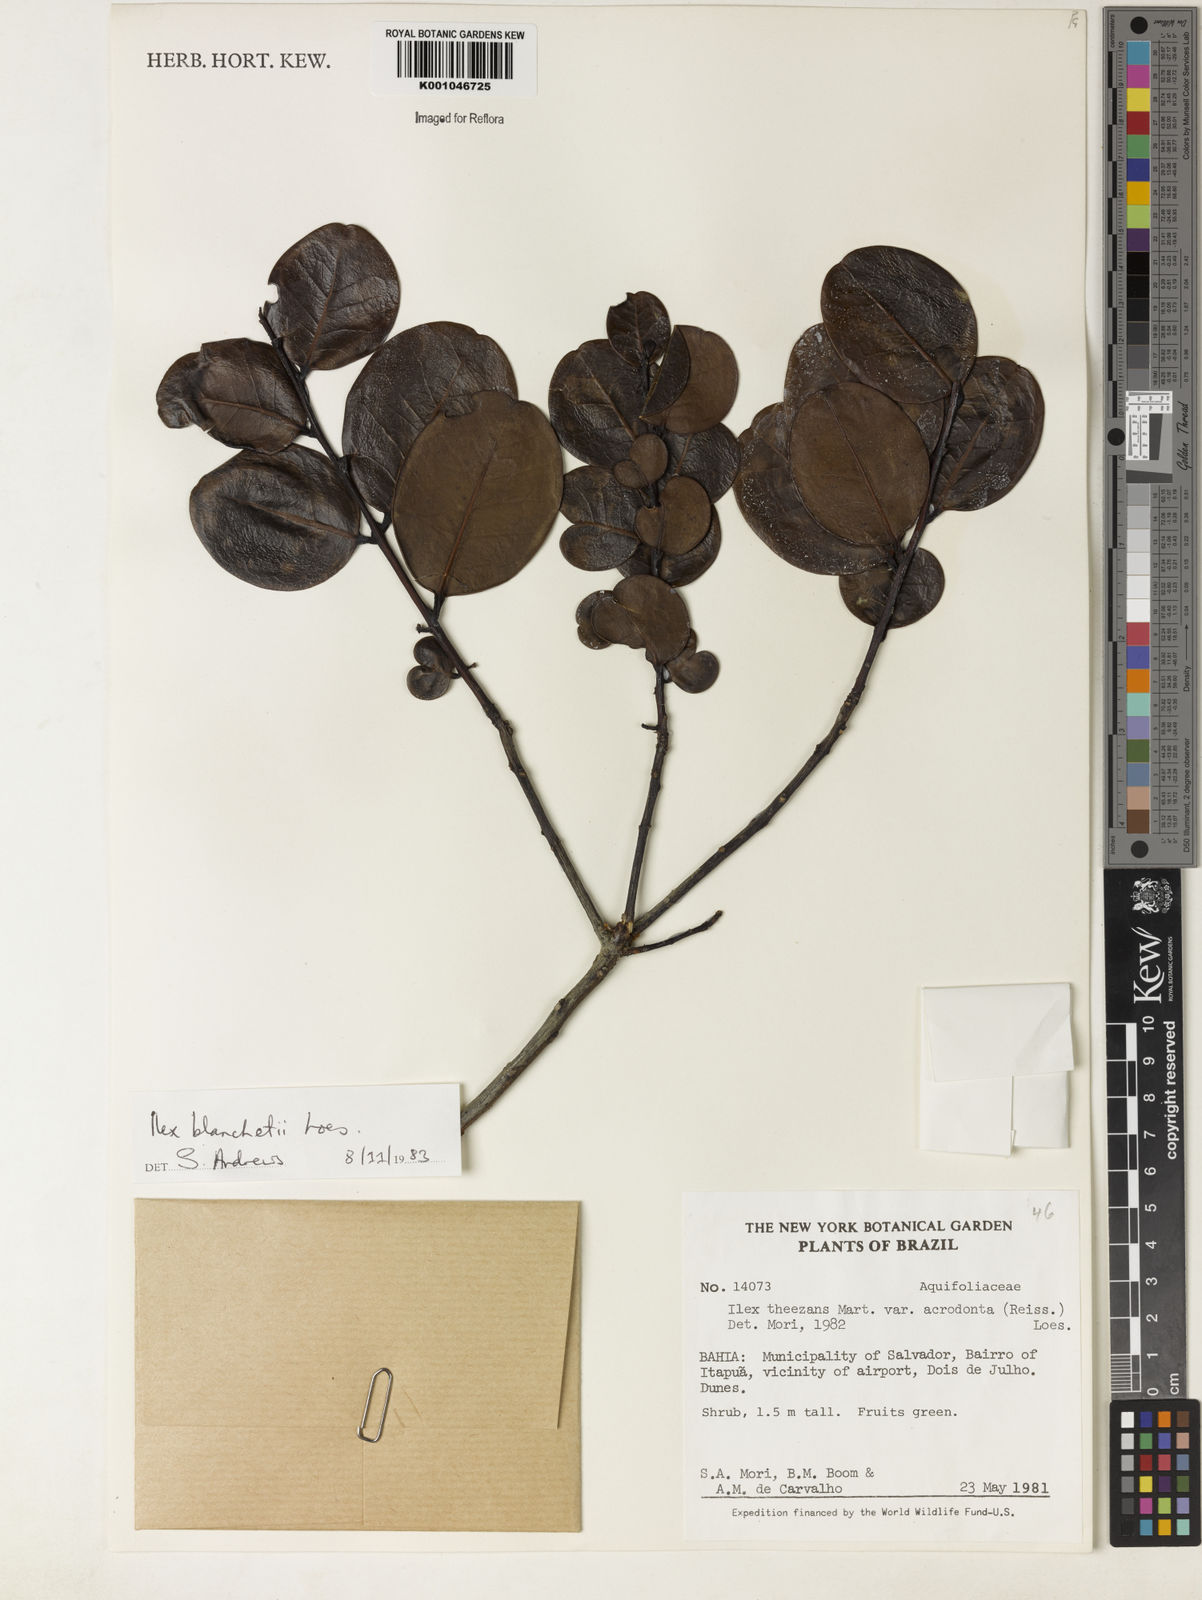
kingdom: Plantae
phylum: Tracheophyta
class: Magnoliopsida
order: Aquifoliales
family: Aquifoliaceae
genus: Ilex
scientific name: Ilex blanchetii
